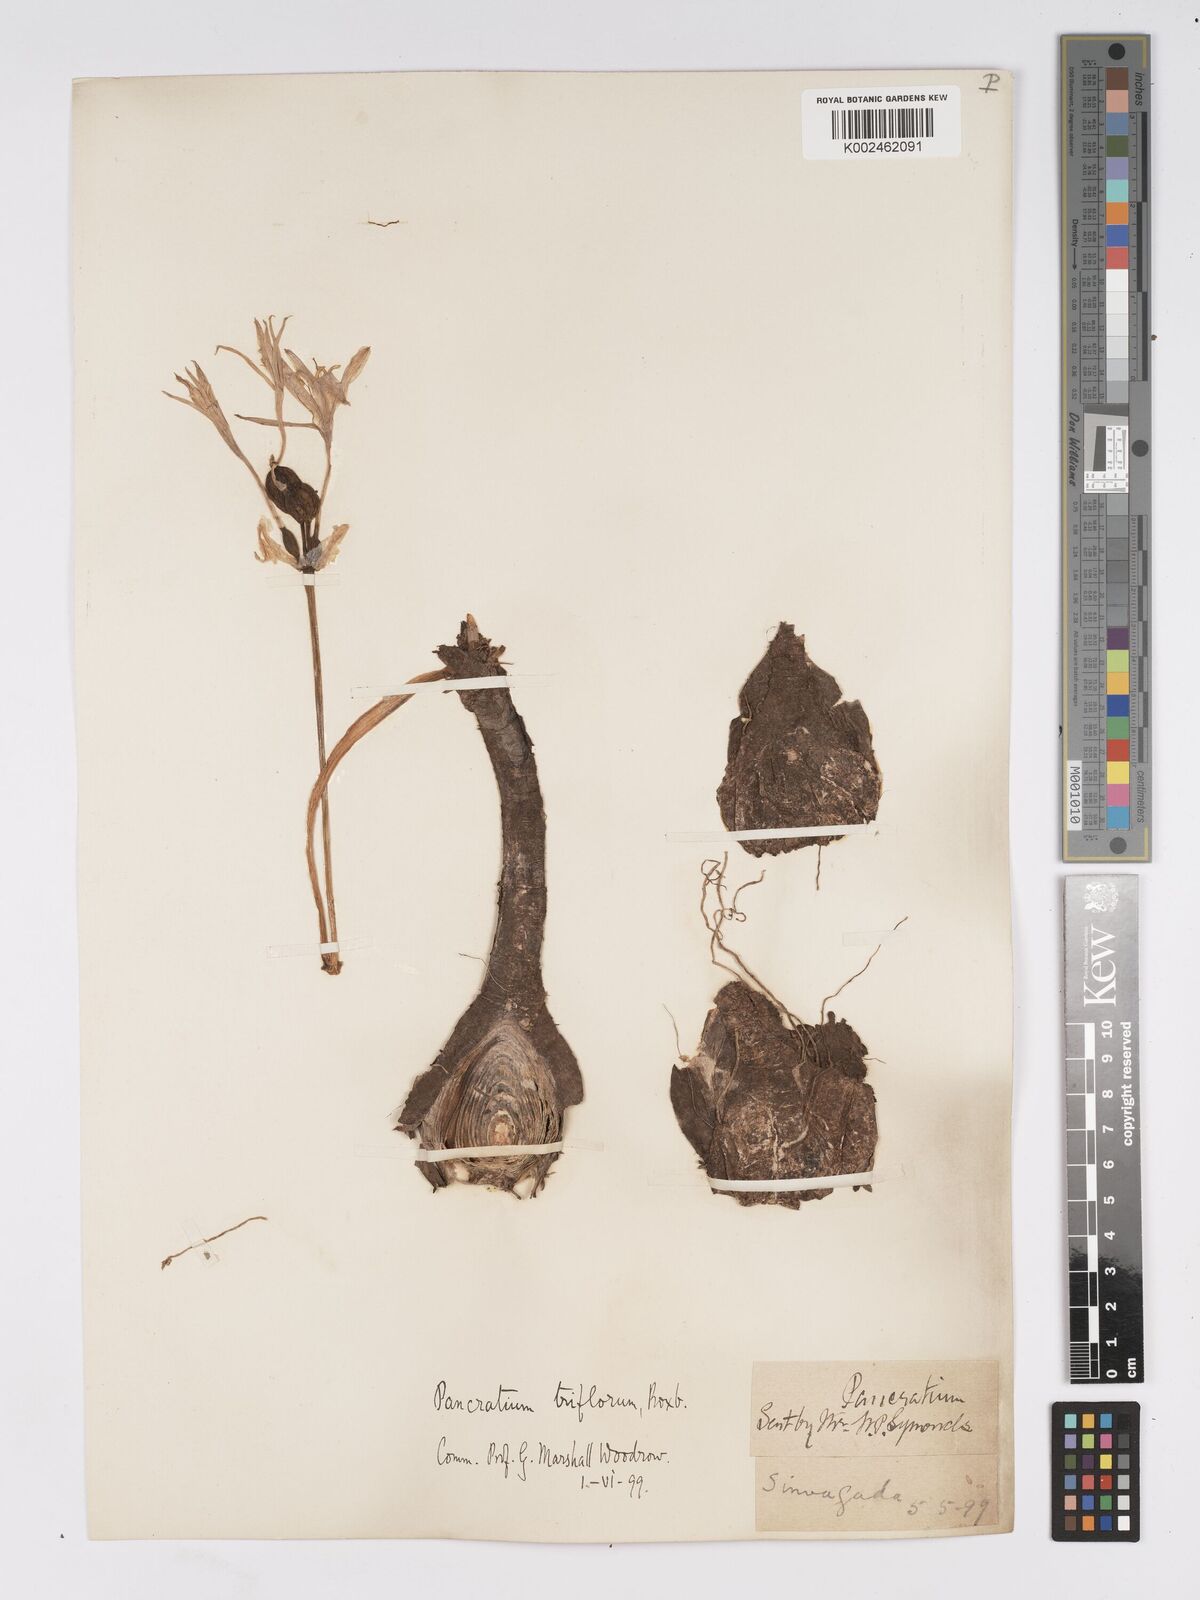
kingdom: Plantae
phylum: Tracheophyta
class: Liliopsida
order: Asparagales
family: Amaryllidaceae
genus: Pancratium
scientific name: Pancratium triflorum
